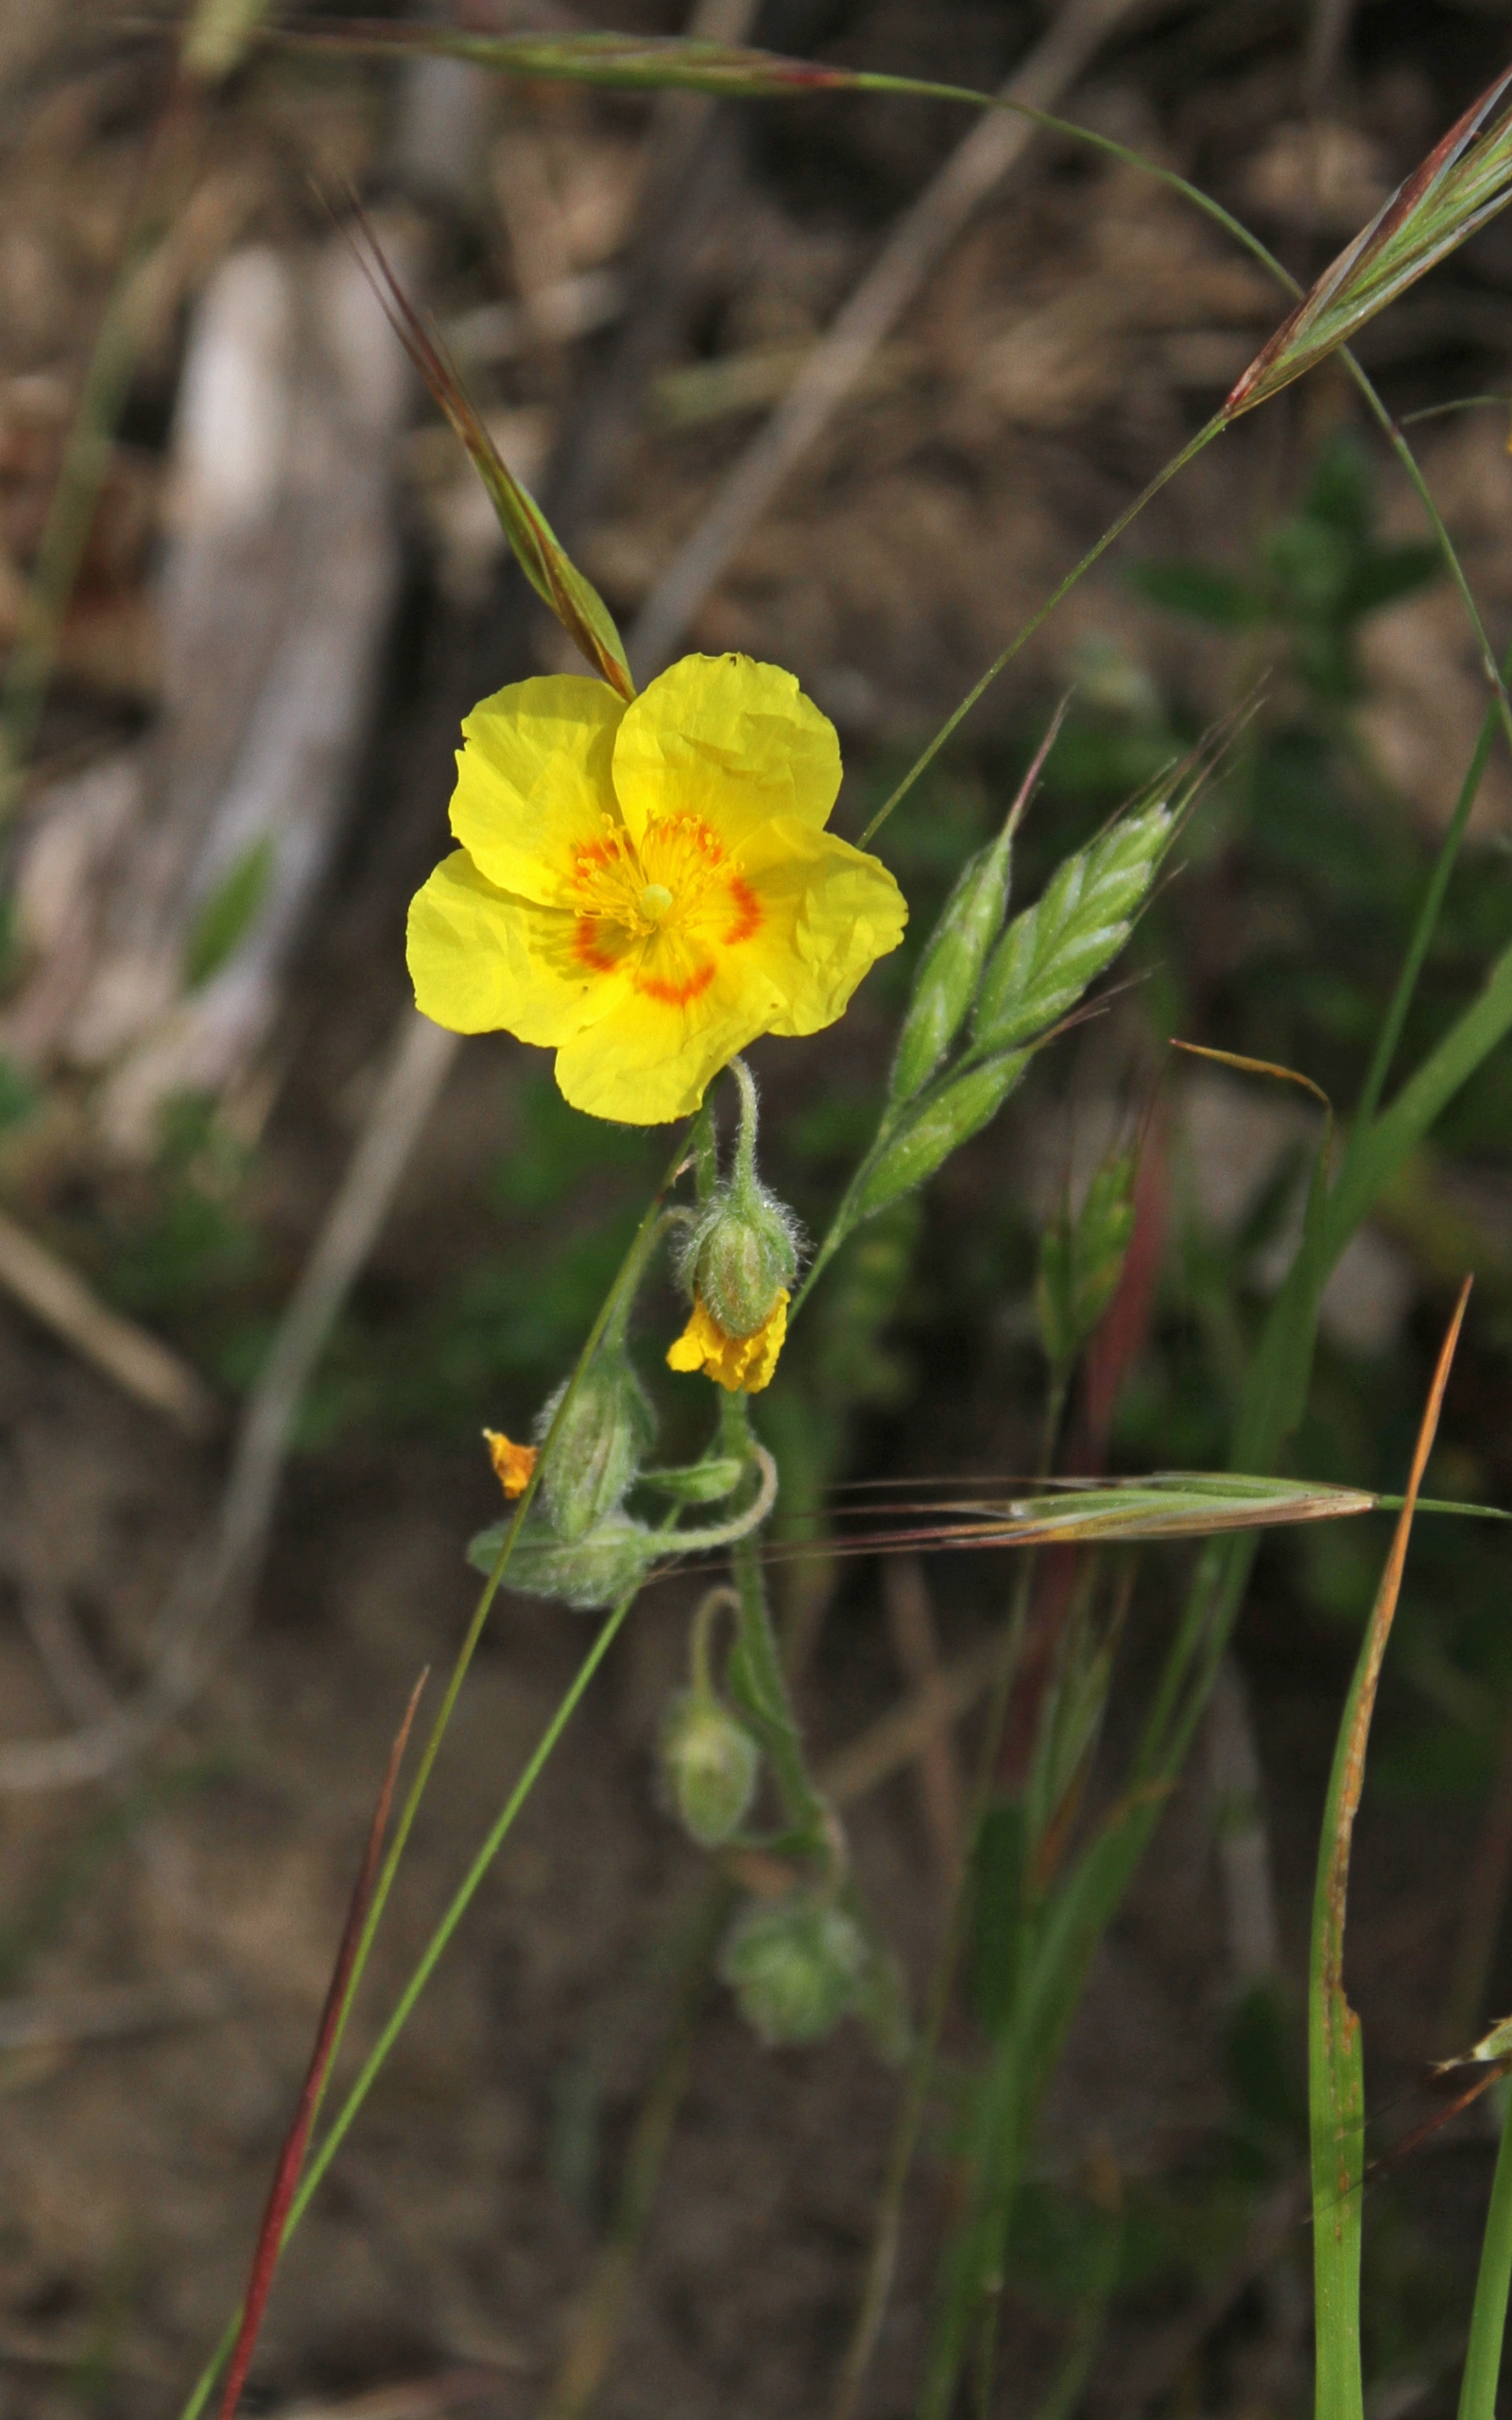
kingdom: Plantae
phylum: Tracheophyta
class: Magnoliopsida
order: Malvales
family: Cistaceae
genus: Helianthemum
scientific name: Helianthemum nummularium
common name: Soløje
